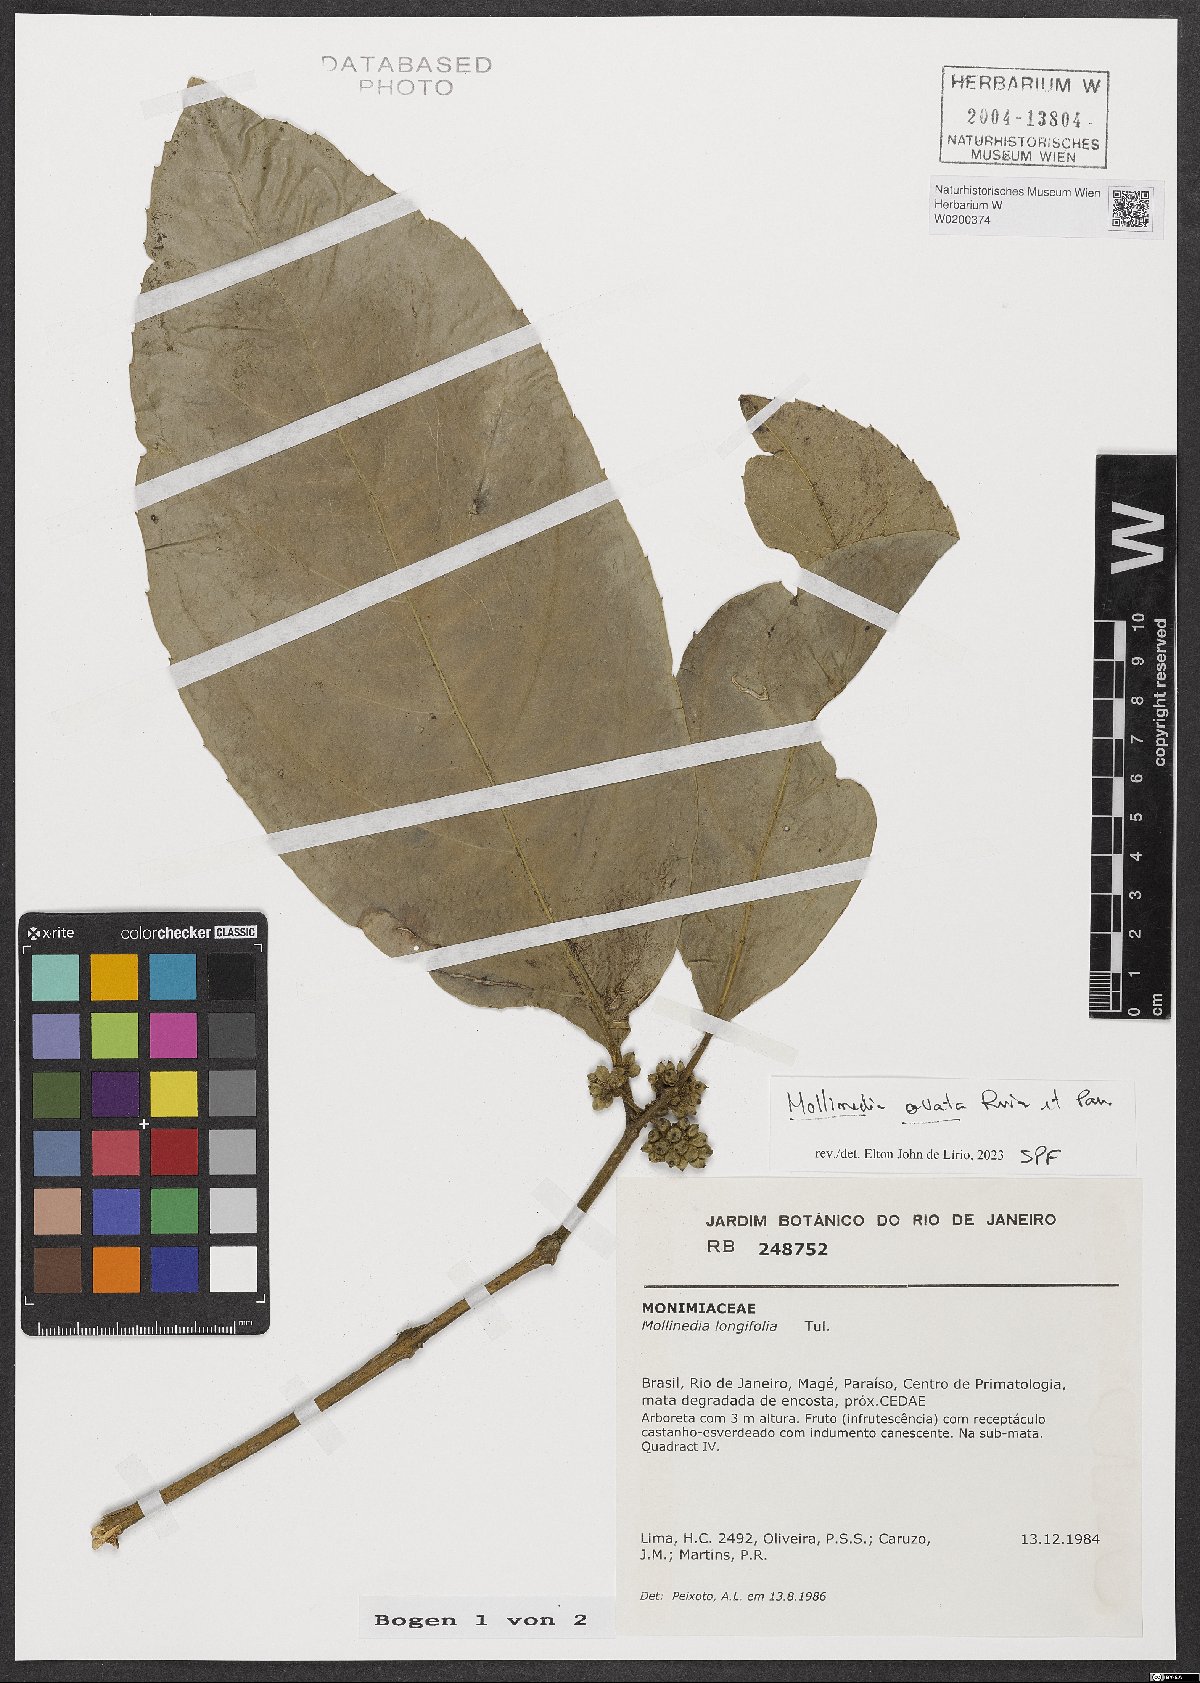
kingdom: Plantae
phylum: Tracheophyta
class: Magnoliopsida
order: Laurales
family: Monimiaceae
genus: Mollinedia
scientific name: Mollinedia ovata
